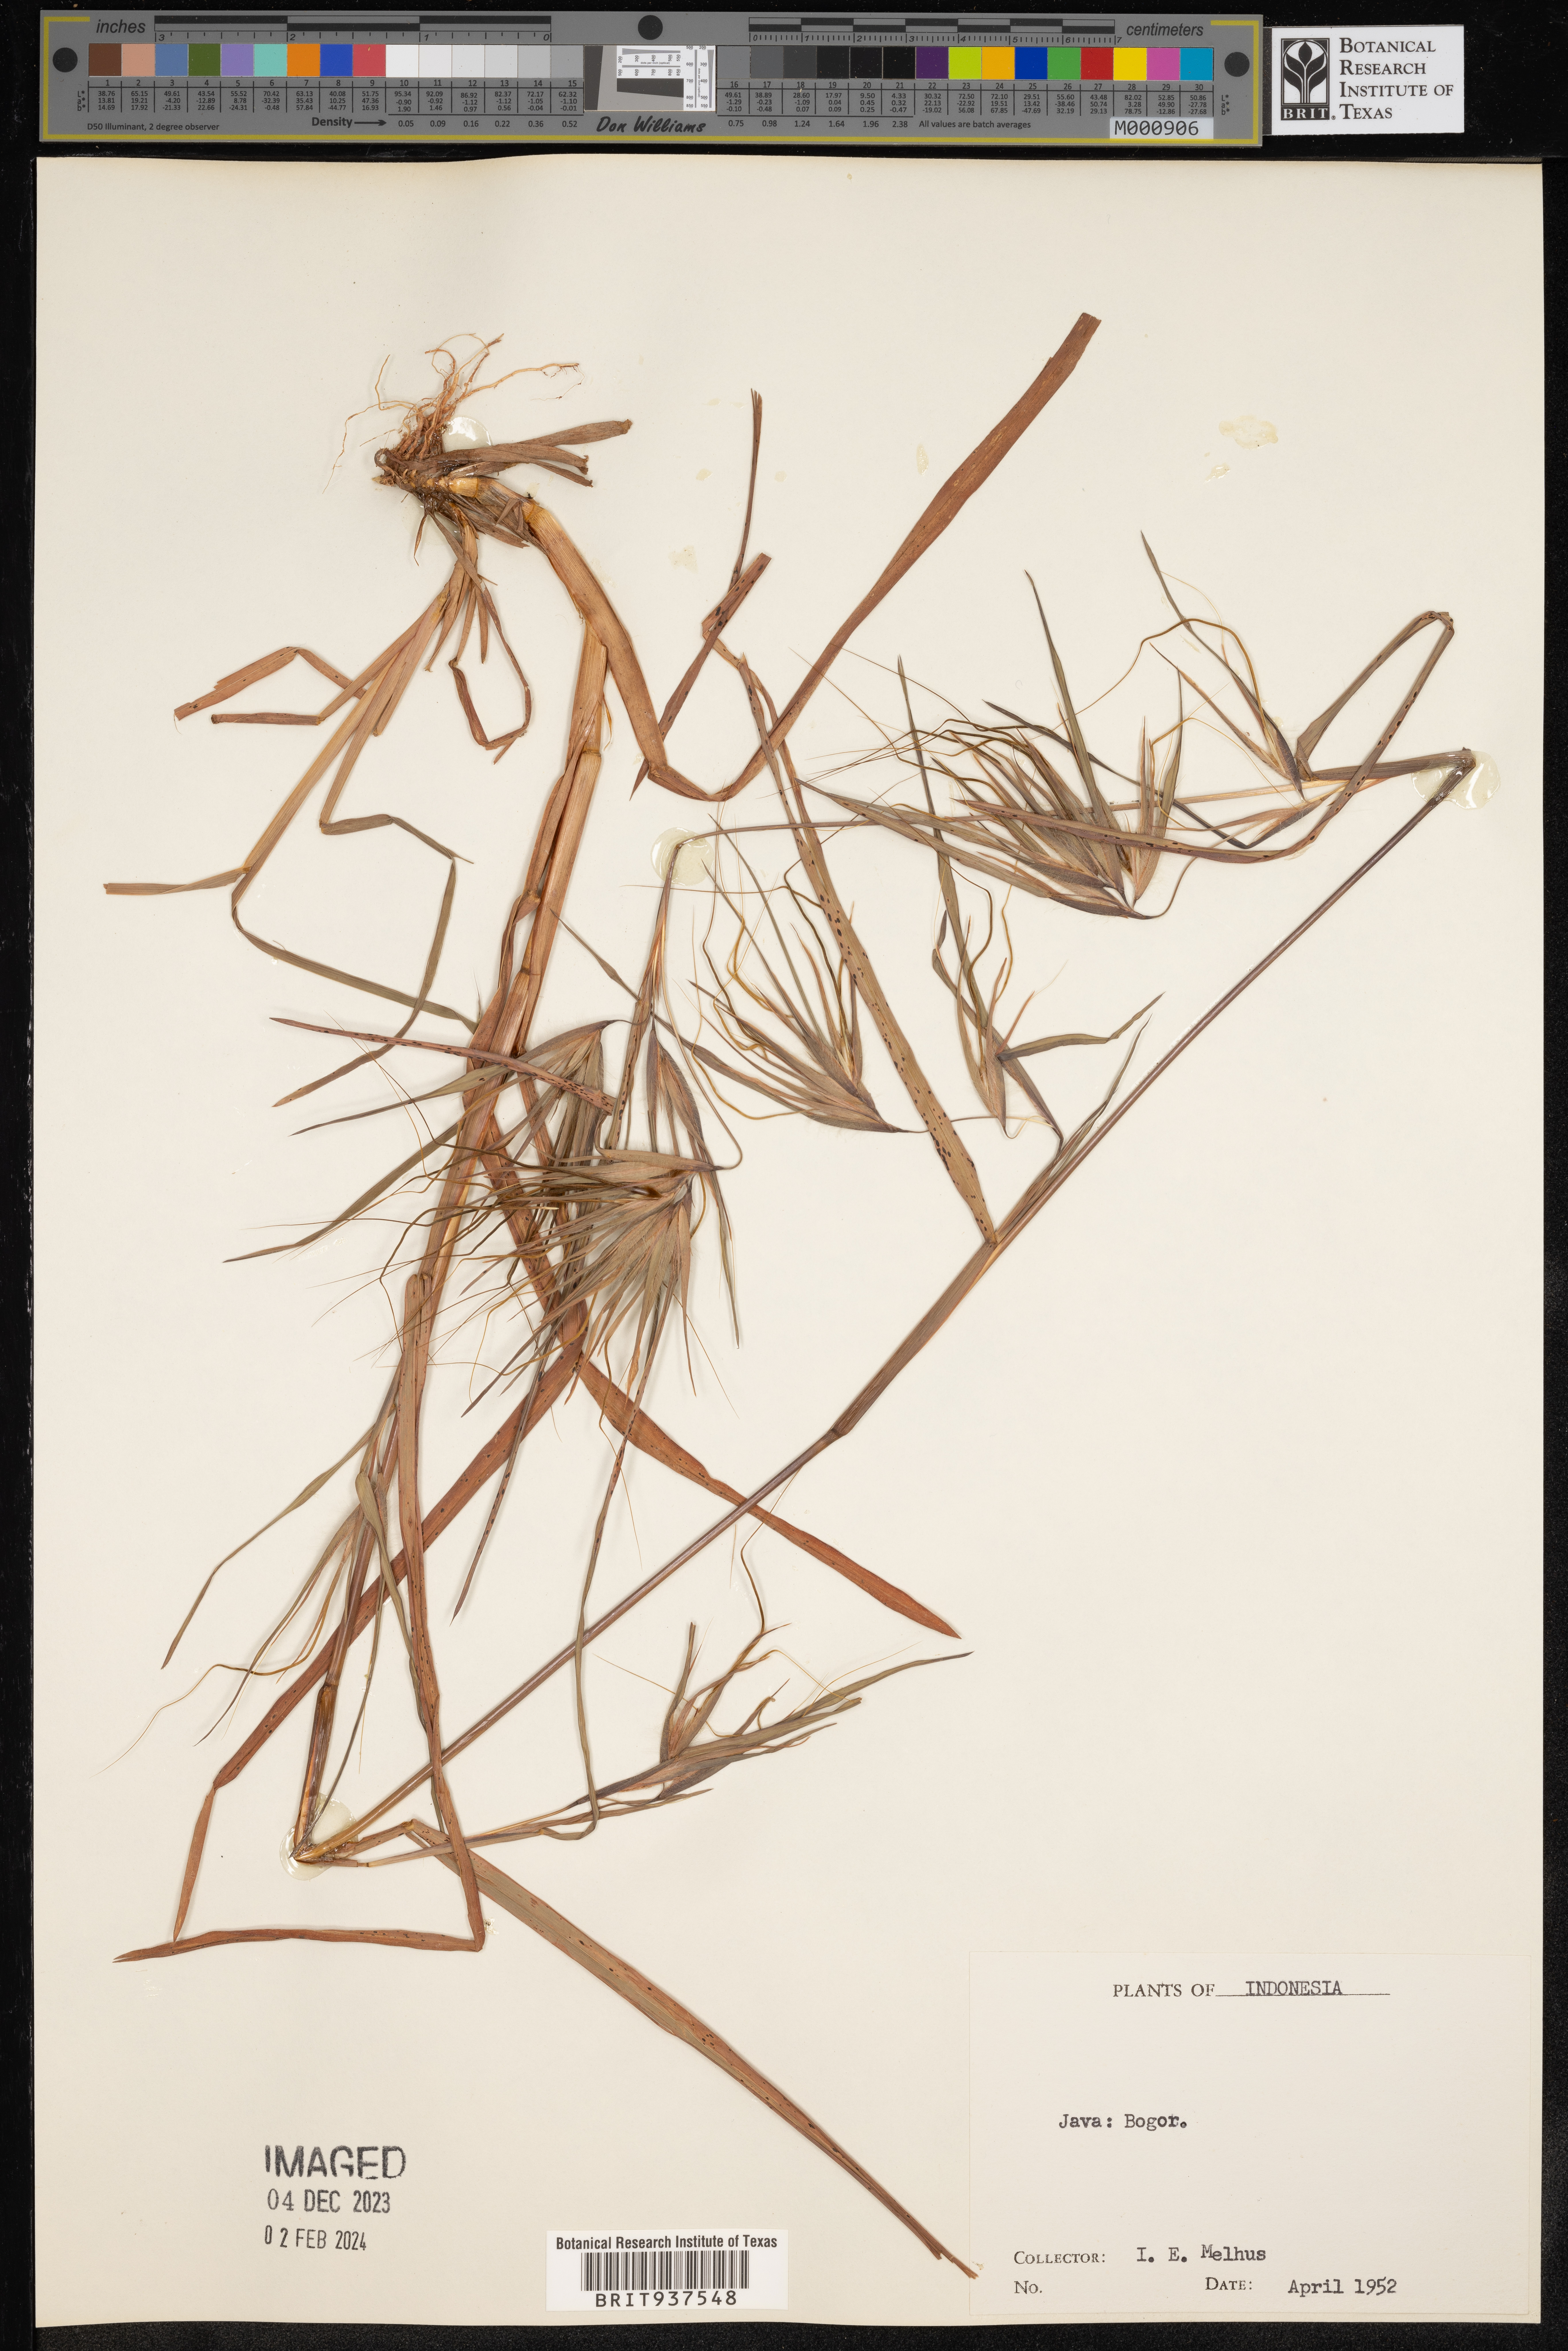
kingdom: Plantae
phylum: Tracheophyta
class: Liliopsida
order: Poales
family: Poaceae
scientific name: Poaceae
